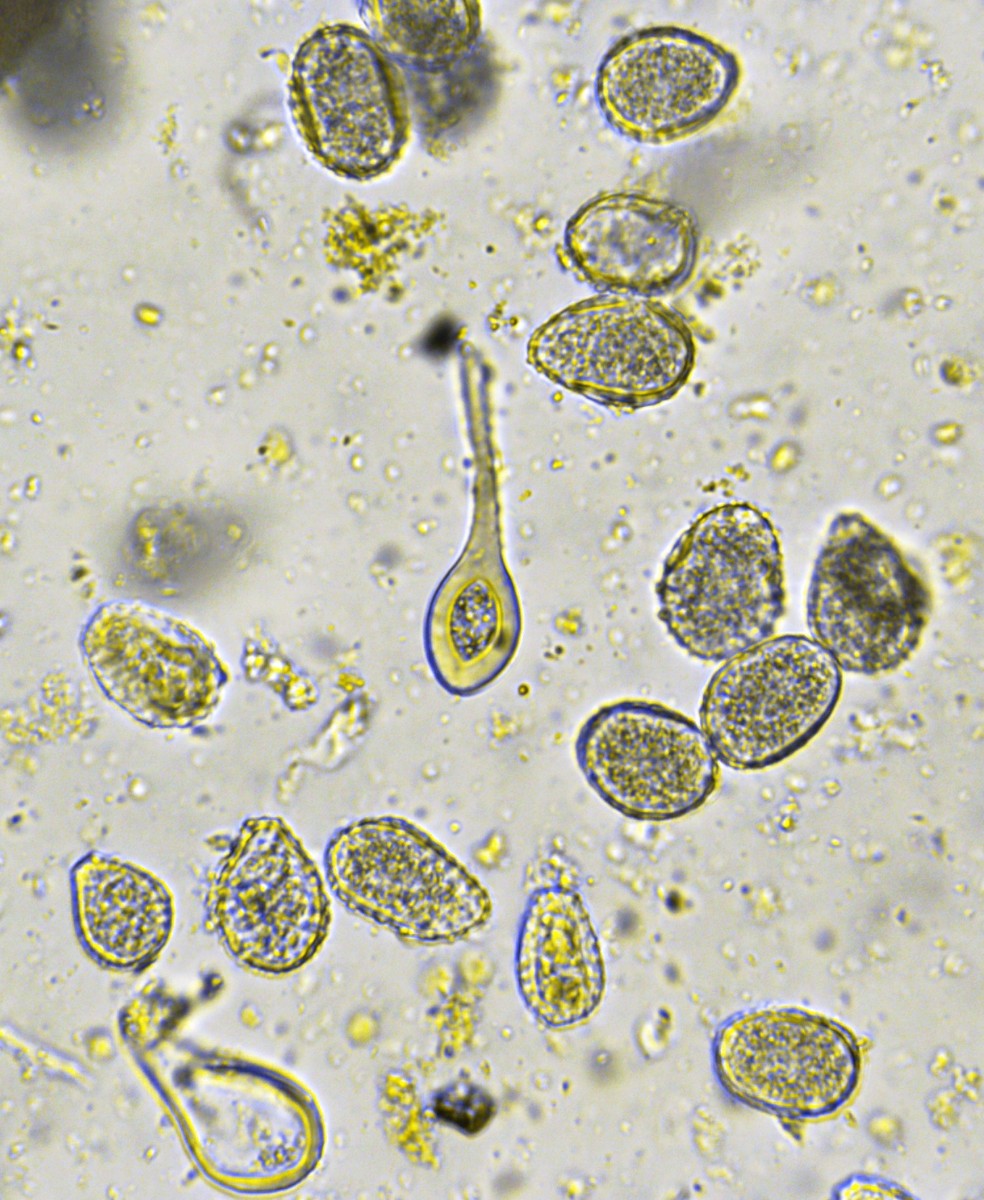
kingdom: Fungi
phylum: Basidiomycota
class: Pucciniomycetes
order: Pucciniales
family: Melampsoraceae
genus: Melampsora
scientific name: Melampsora allii-populina
